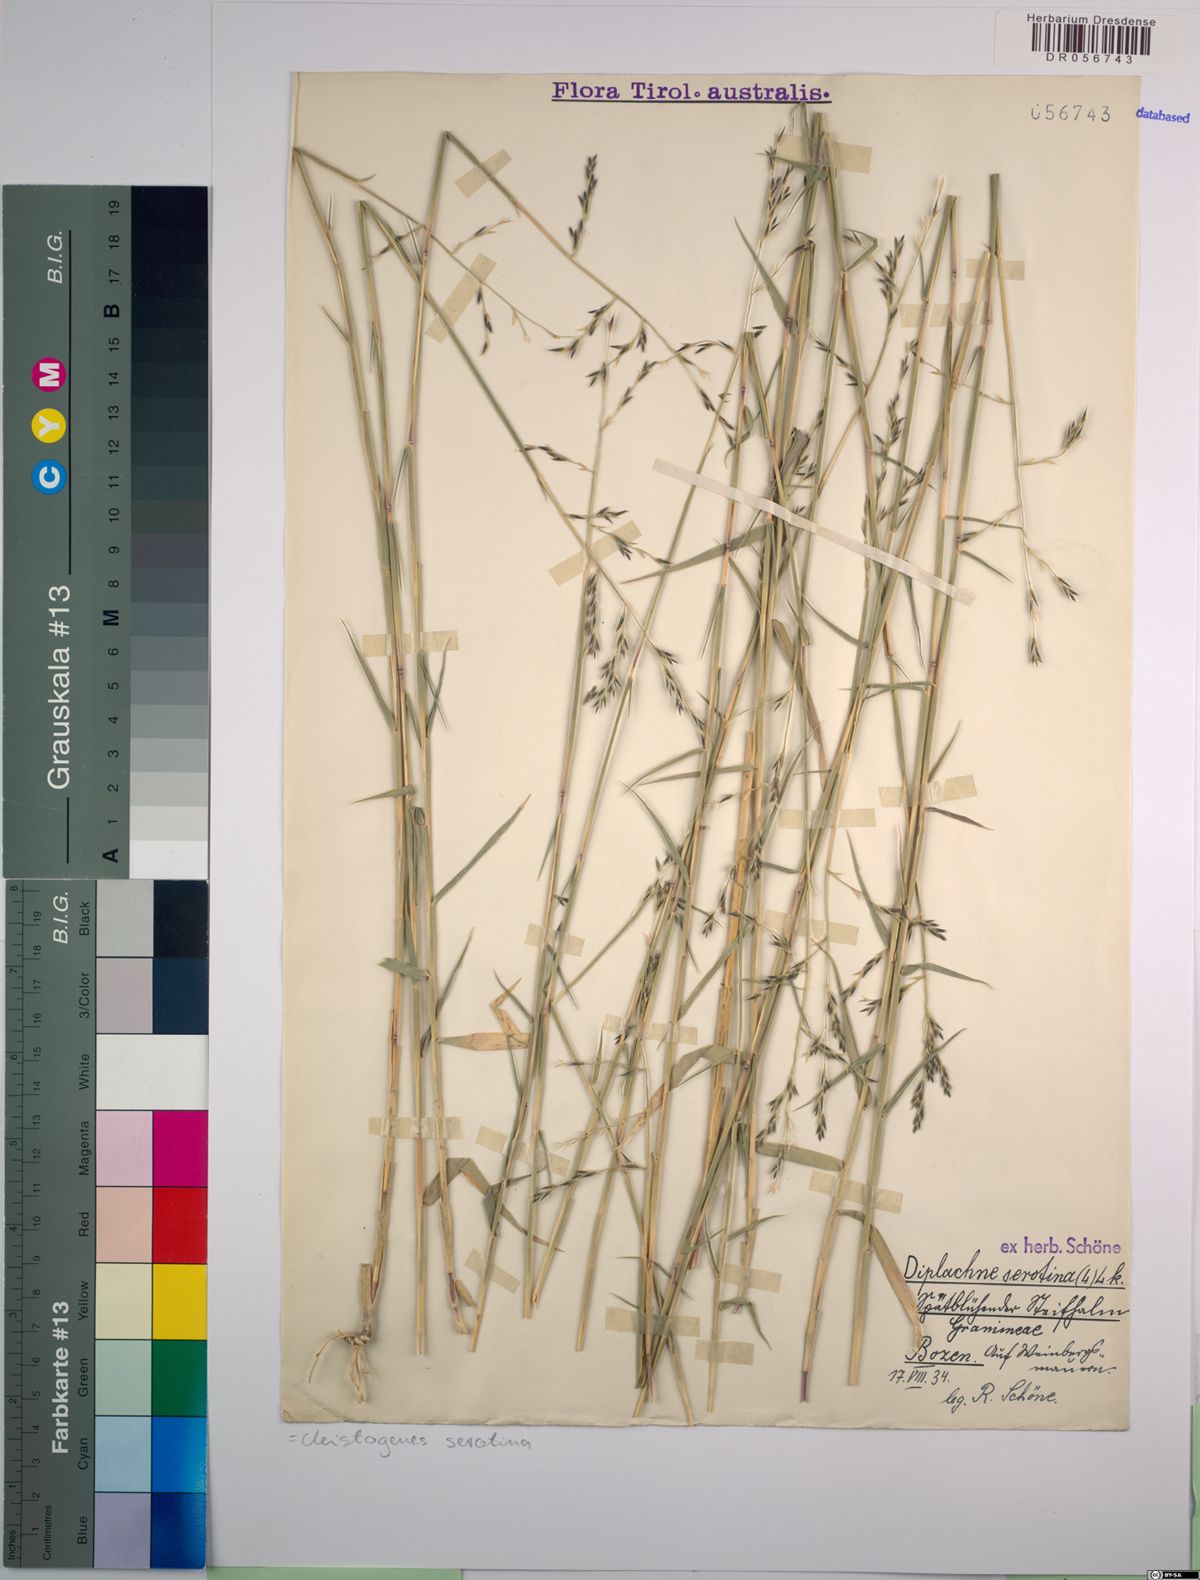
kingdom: Plantae
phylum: Tracheophyta
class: Liliopsida
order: Poales
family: Poaceae
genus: Cleistogenes
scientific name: Cleistogenes serotina
